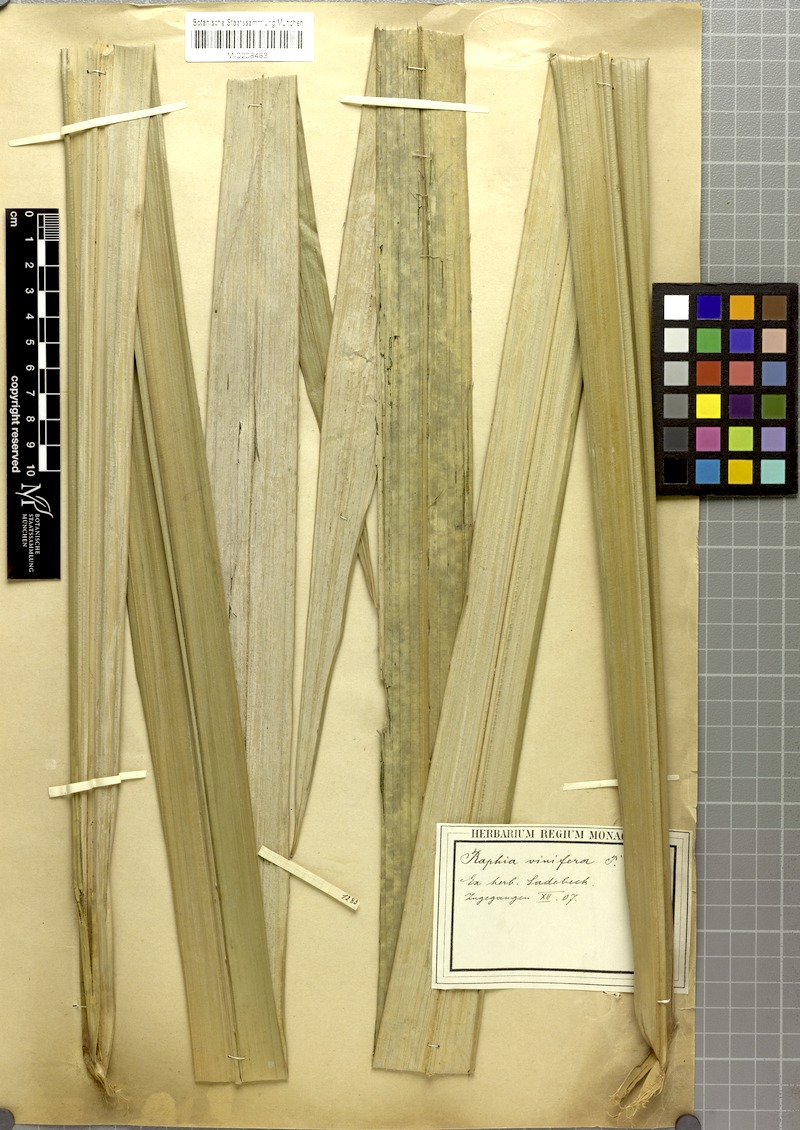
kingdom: Plantae
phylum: Tracheophyta
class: Liliopsida
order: Arecales
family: Arecaceae
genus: Raphia
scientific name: Raphia vinifera
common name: Raphia palm
